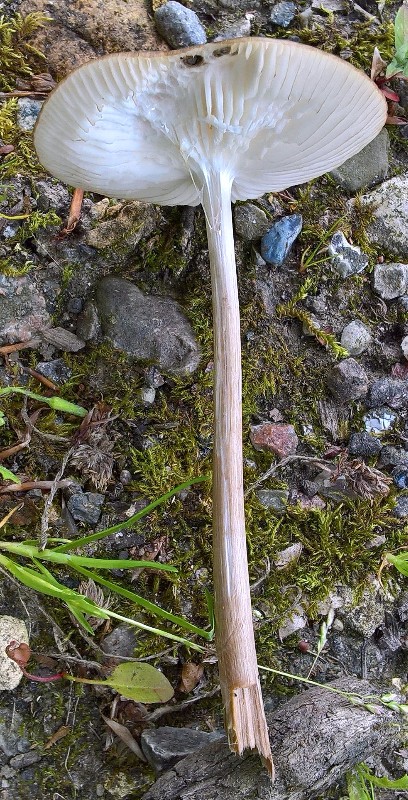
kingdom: Fungi
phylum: Basidiomycota
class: Agaricomycetes
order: Agaricales
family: Physalacriaceae
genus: Hymenopellis
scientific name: Hymenopellis radicata
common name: almindelig pælerodshat
